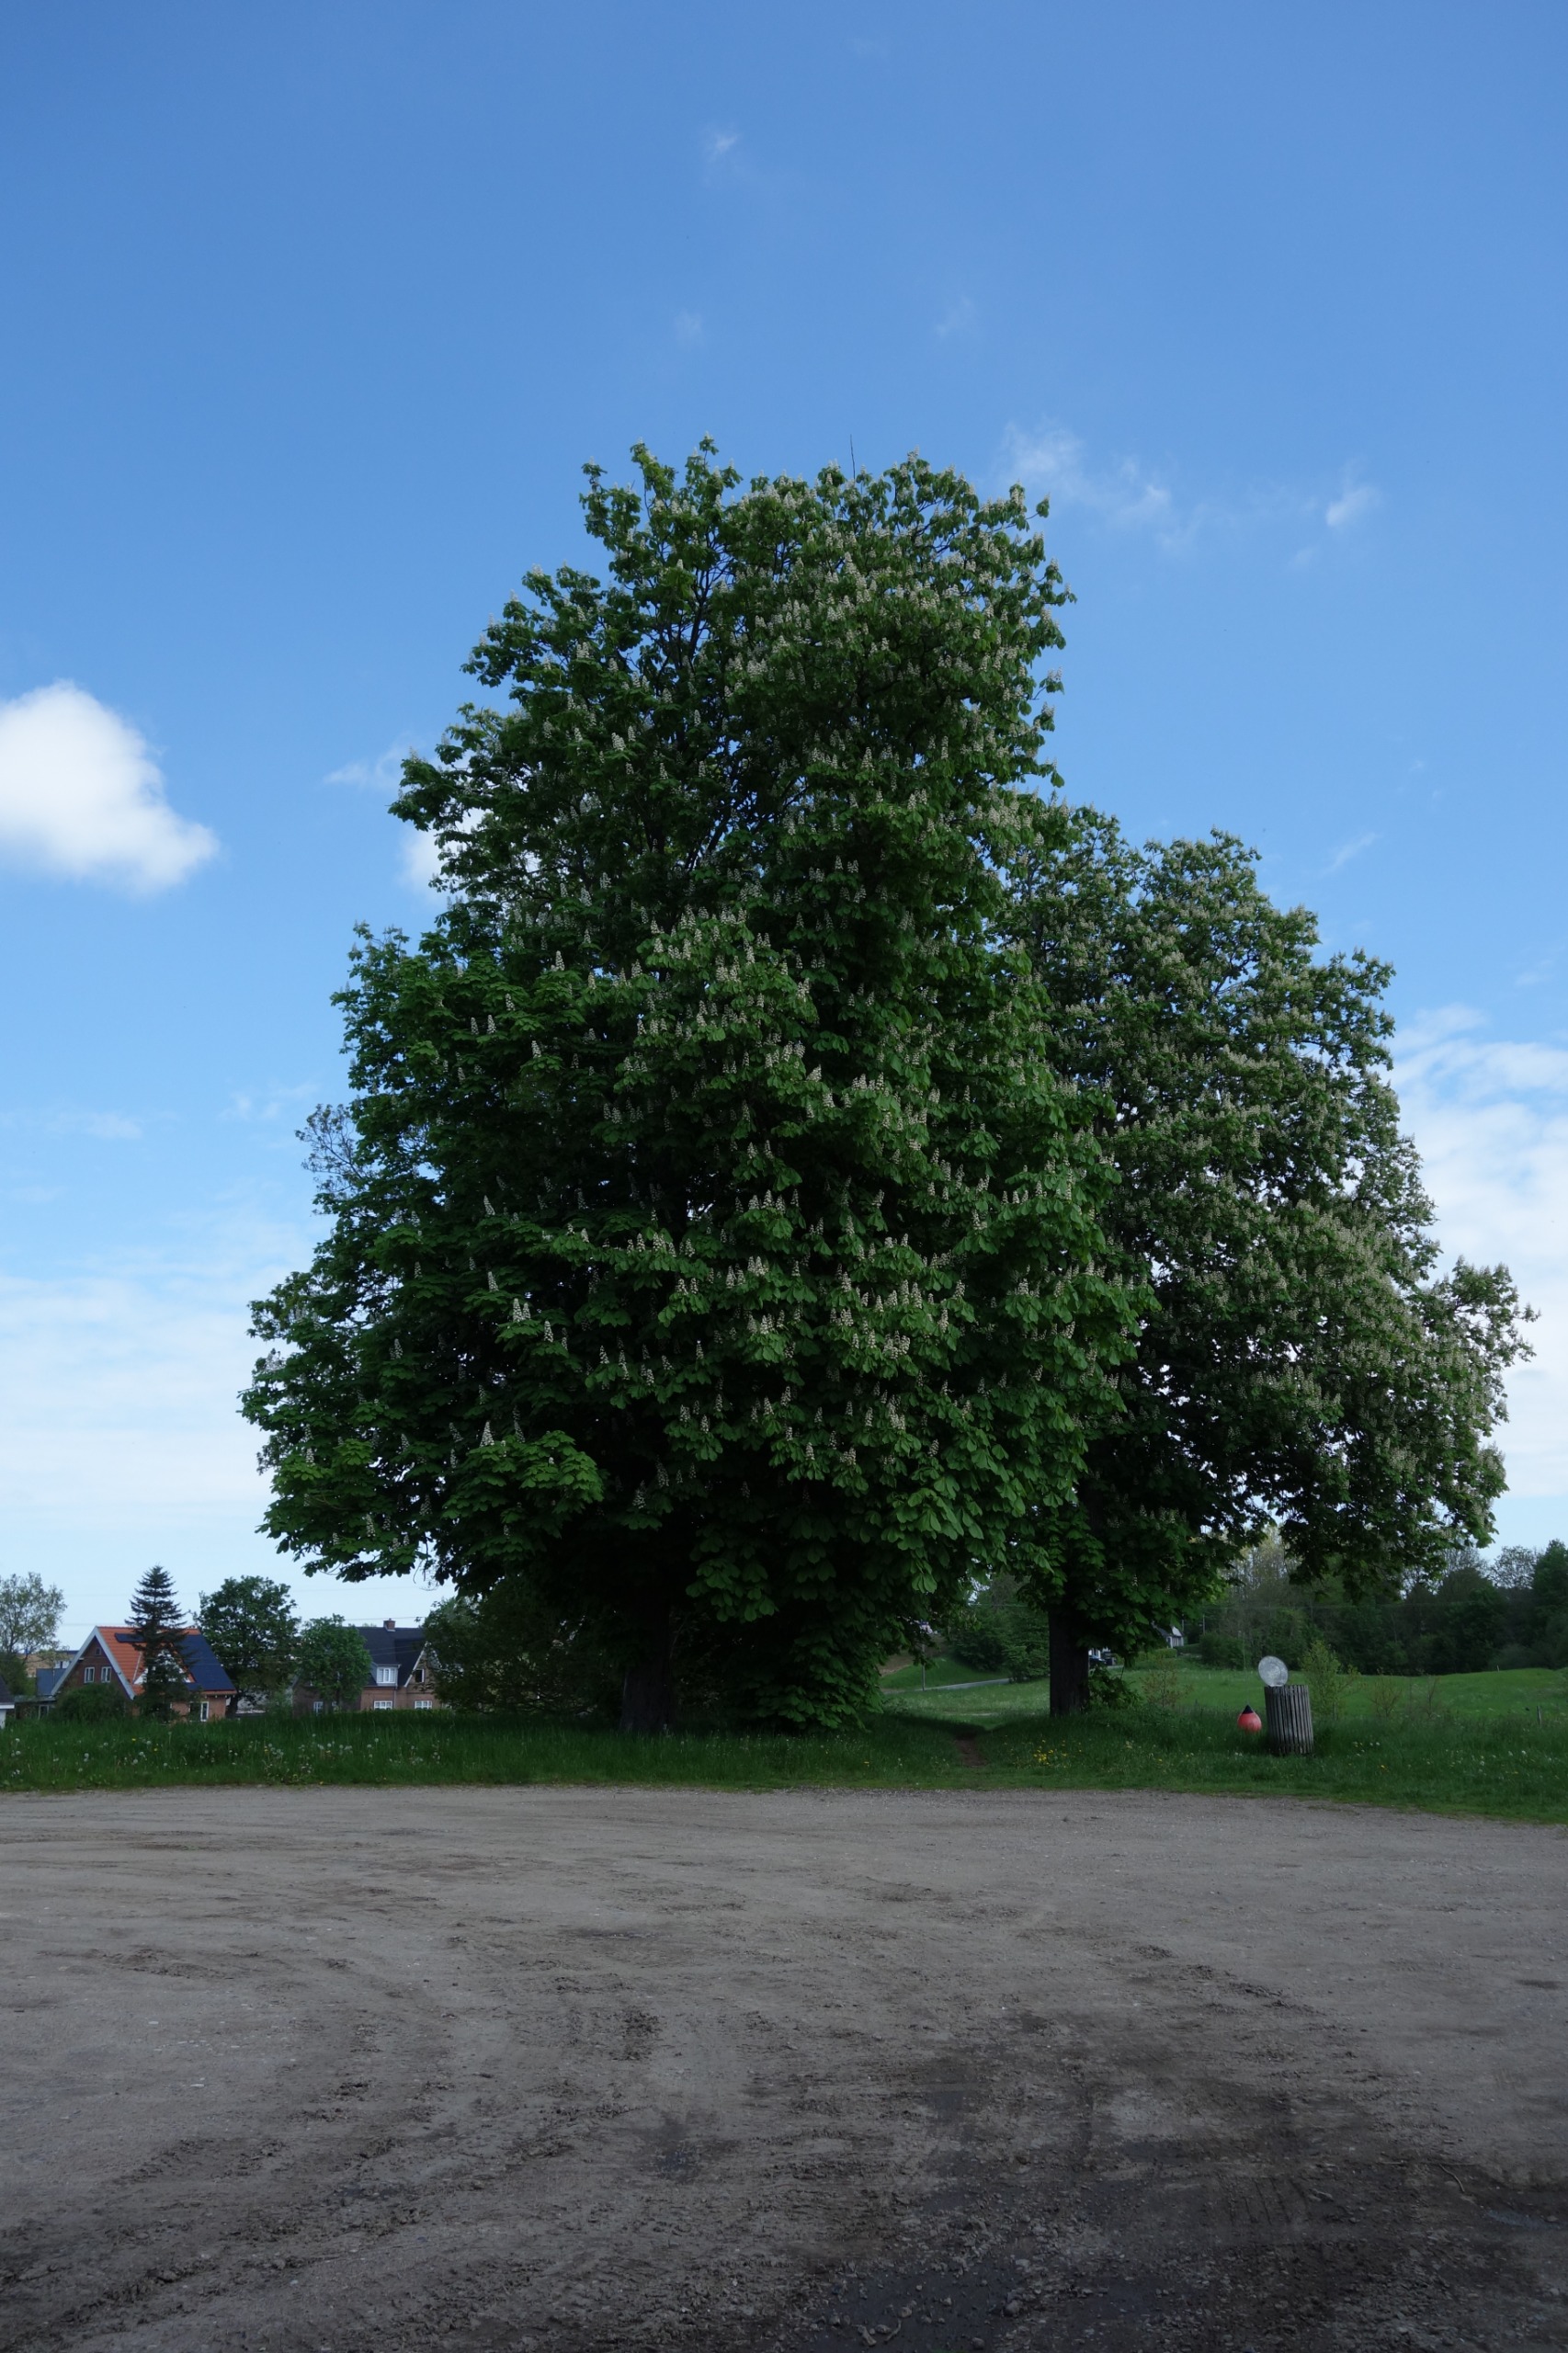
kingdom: Plantae
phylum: Tracheophyta
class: Magnoliopsida
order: Sapindales
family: Sapindaceae
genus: Aesculus
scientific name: Aesculus hippocastanum
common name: Hestekastanie
